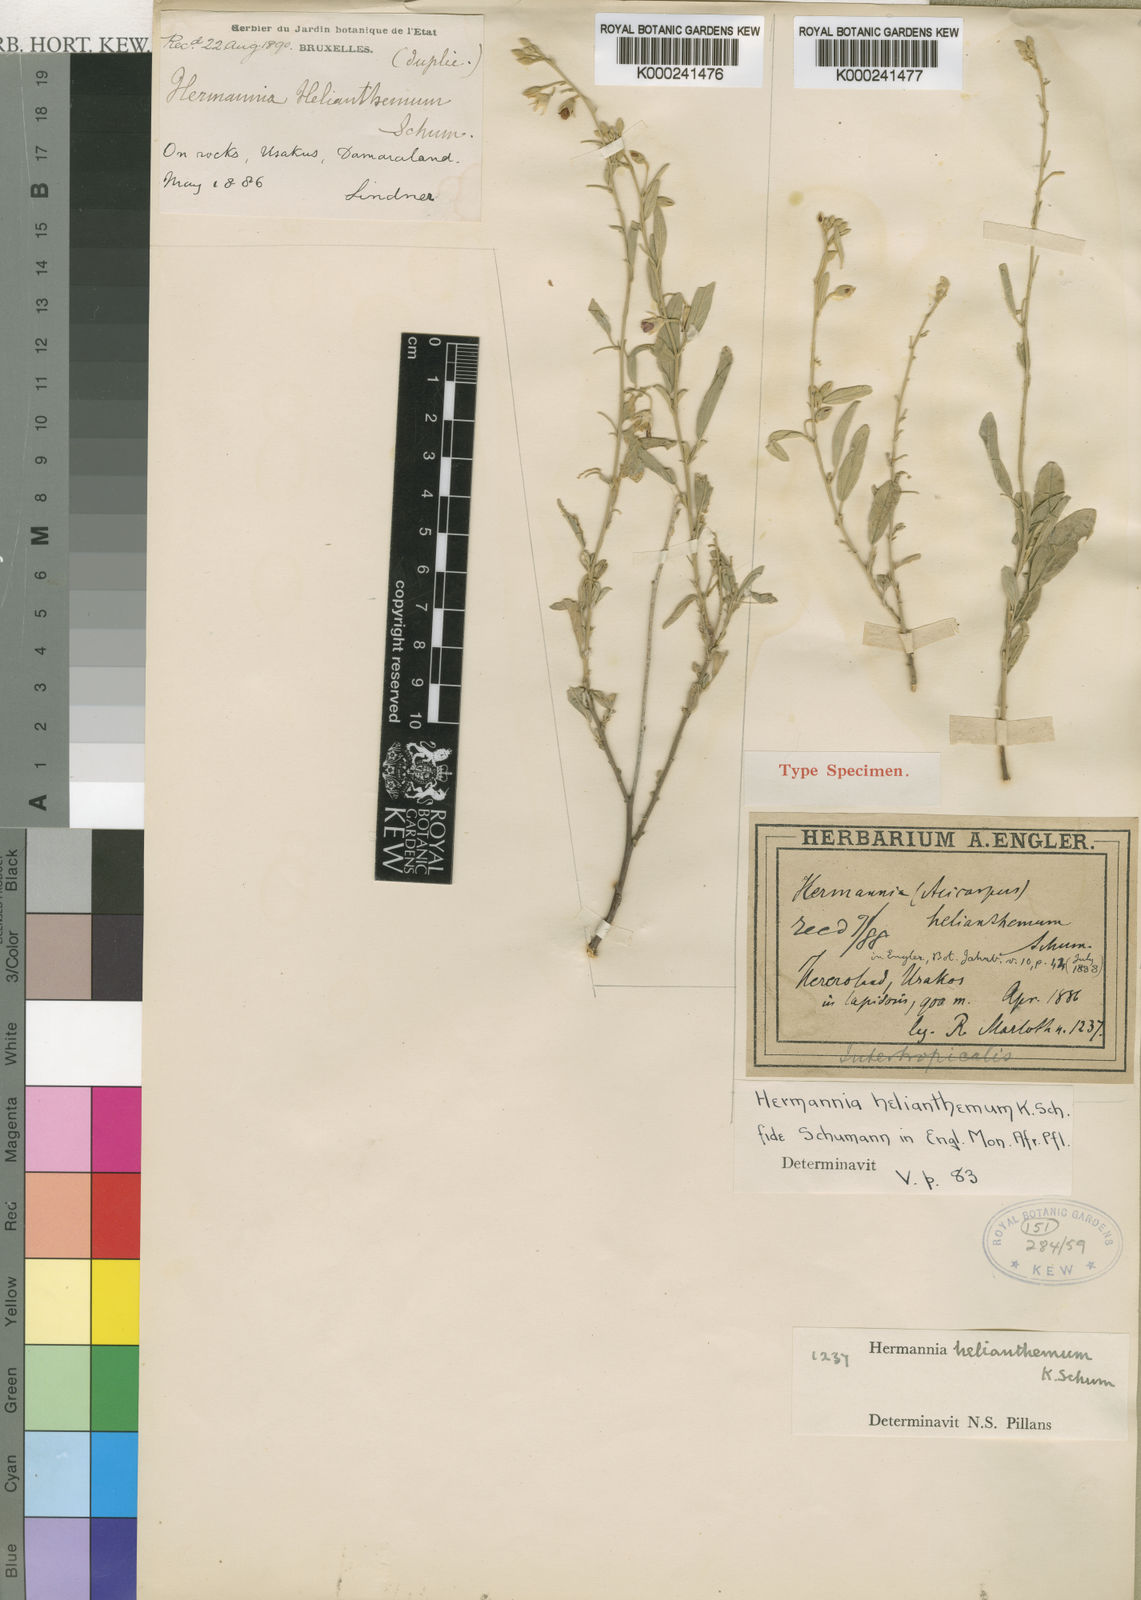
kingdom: Plantae
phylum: Tracheophyta
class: Magnoliopsida
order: Malvales
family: Malvaceae
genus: Hermannia
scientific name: Hermannia helianthemum
